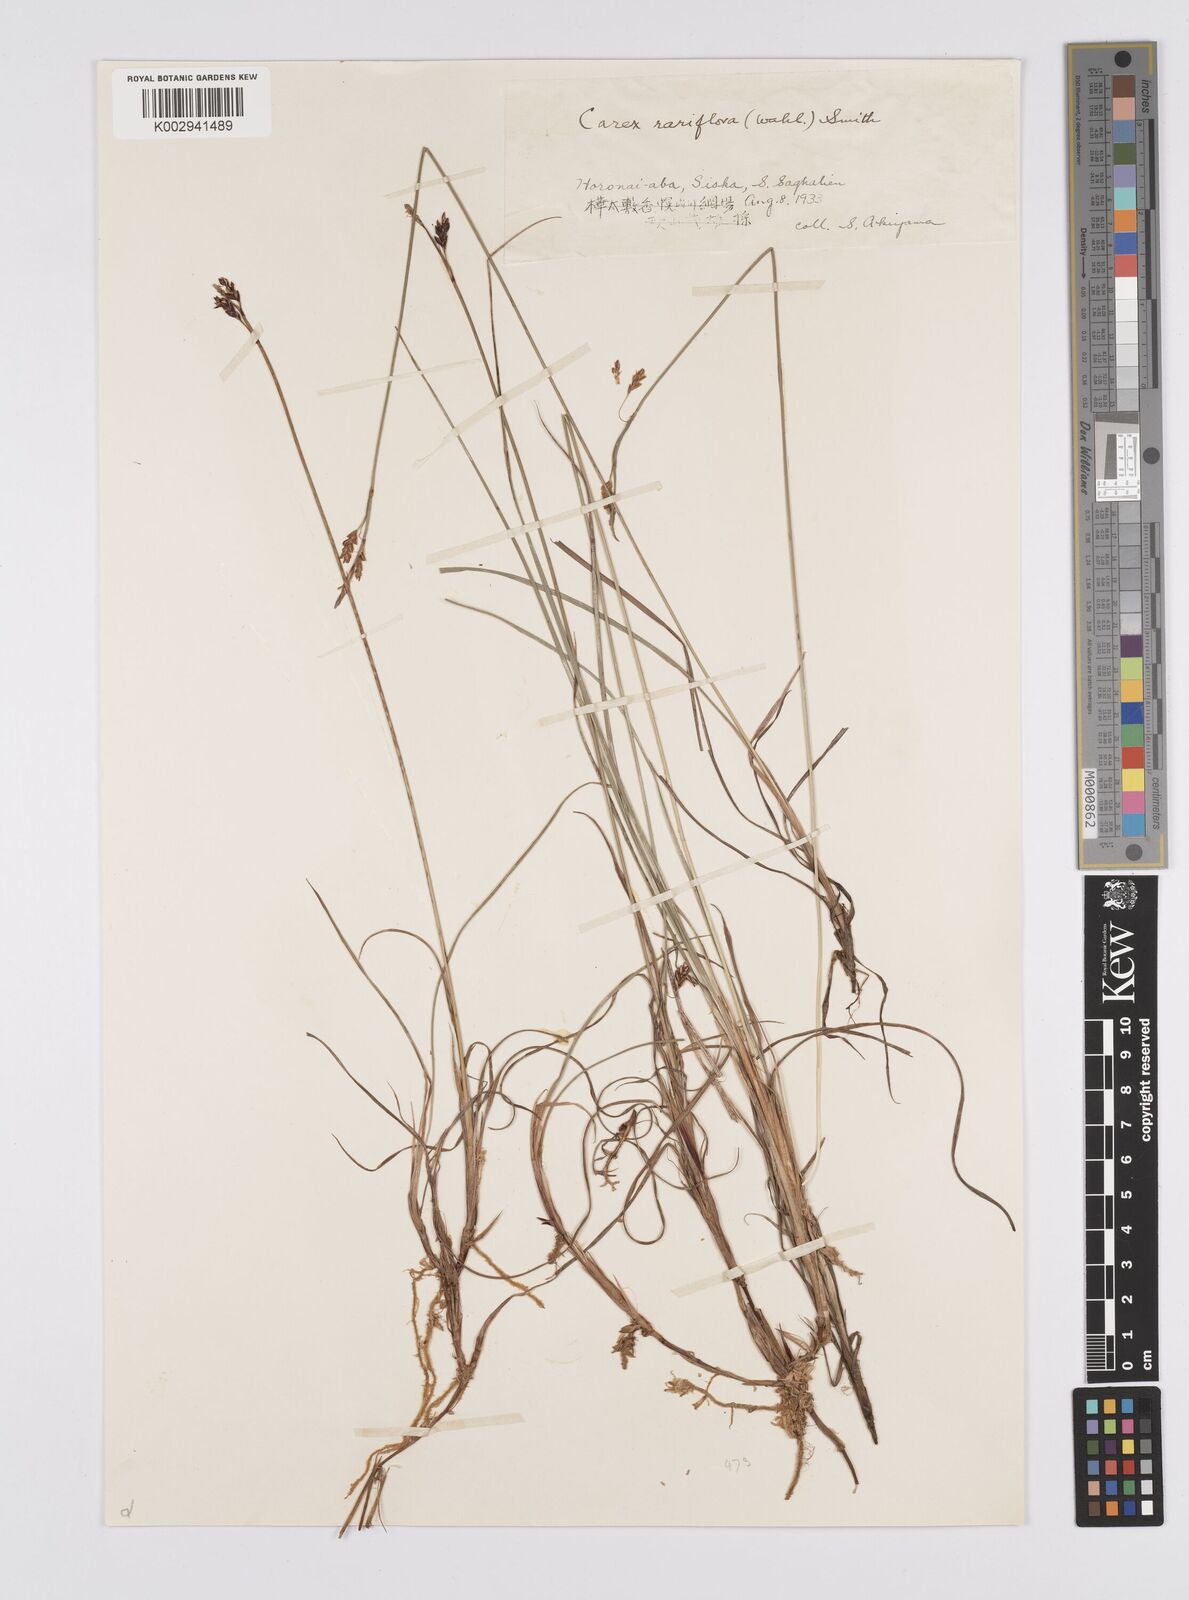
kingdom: Plantae
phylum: Tracheophyta
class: Liliopsida
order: Poales
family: Cyperaceae
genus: Carex
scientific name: Carex rariflora
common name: Loose-flowered alpine sedge
